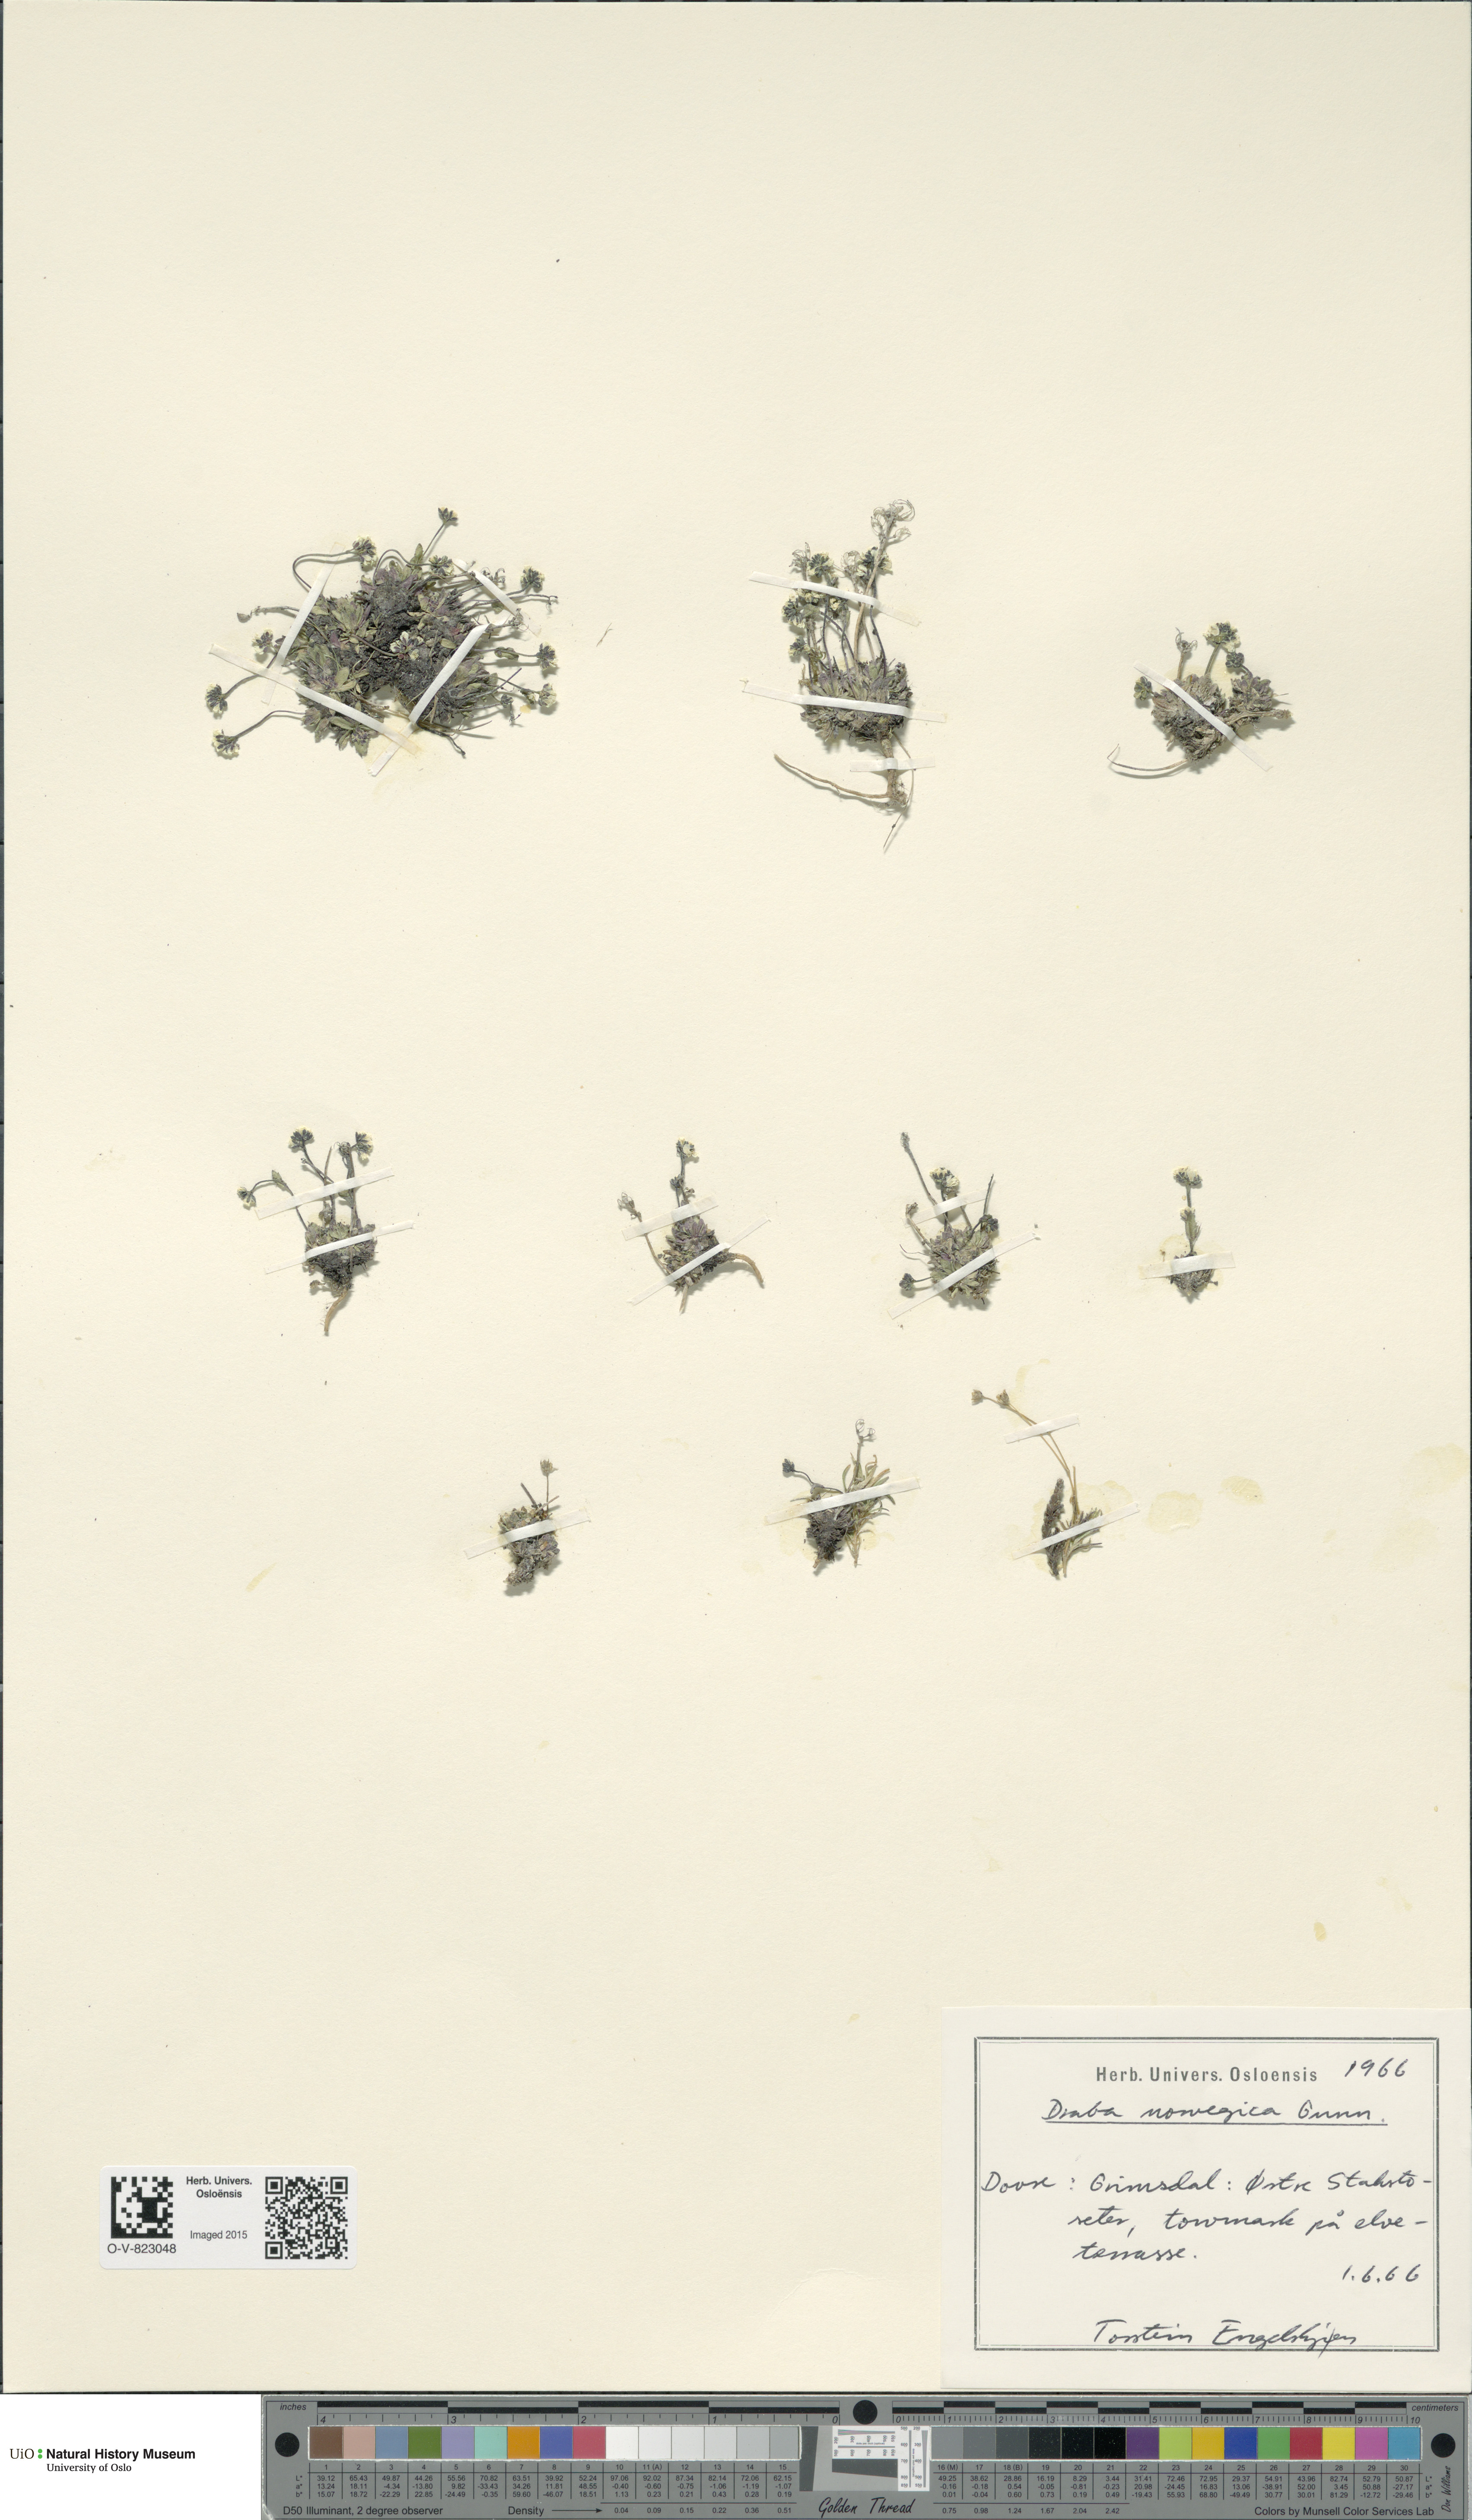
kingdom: Plantae
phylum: Tracheophyta
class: Magnoliopsida
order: Brassicales
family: Brassicaceae
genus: Draba
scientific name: Draba norvegica
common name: Rock whitlowgrass
